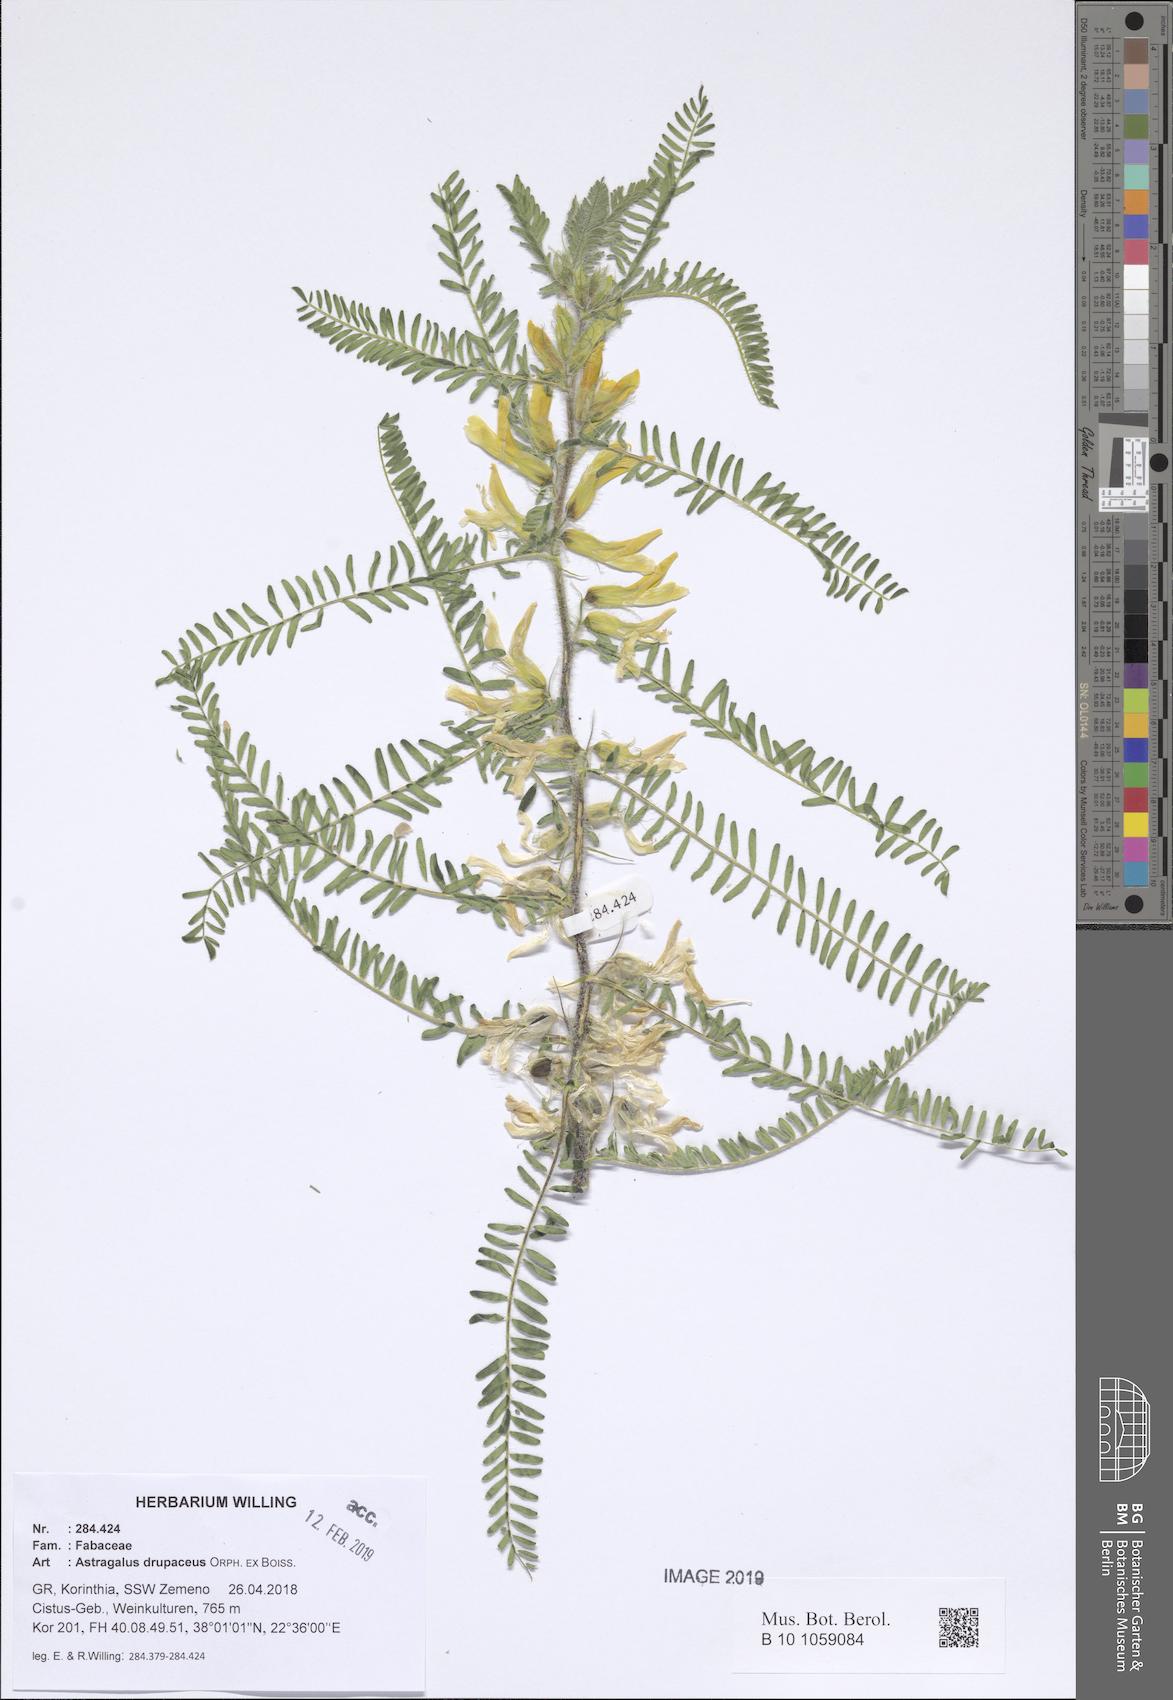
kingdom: Plantae
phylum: Tracheophyta
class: Magnoliopsida
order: Fabales
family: Fabaceae
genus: Astragalus
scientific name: Astragalus drupaceus
